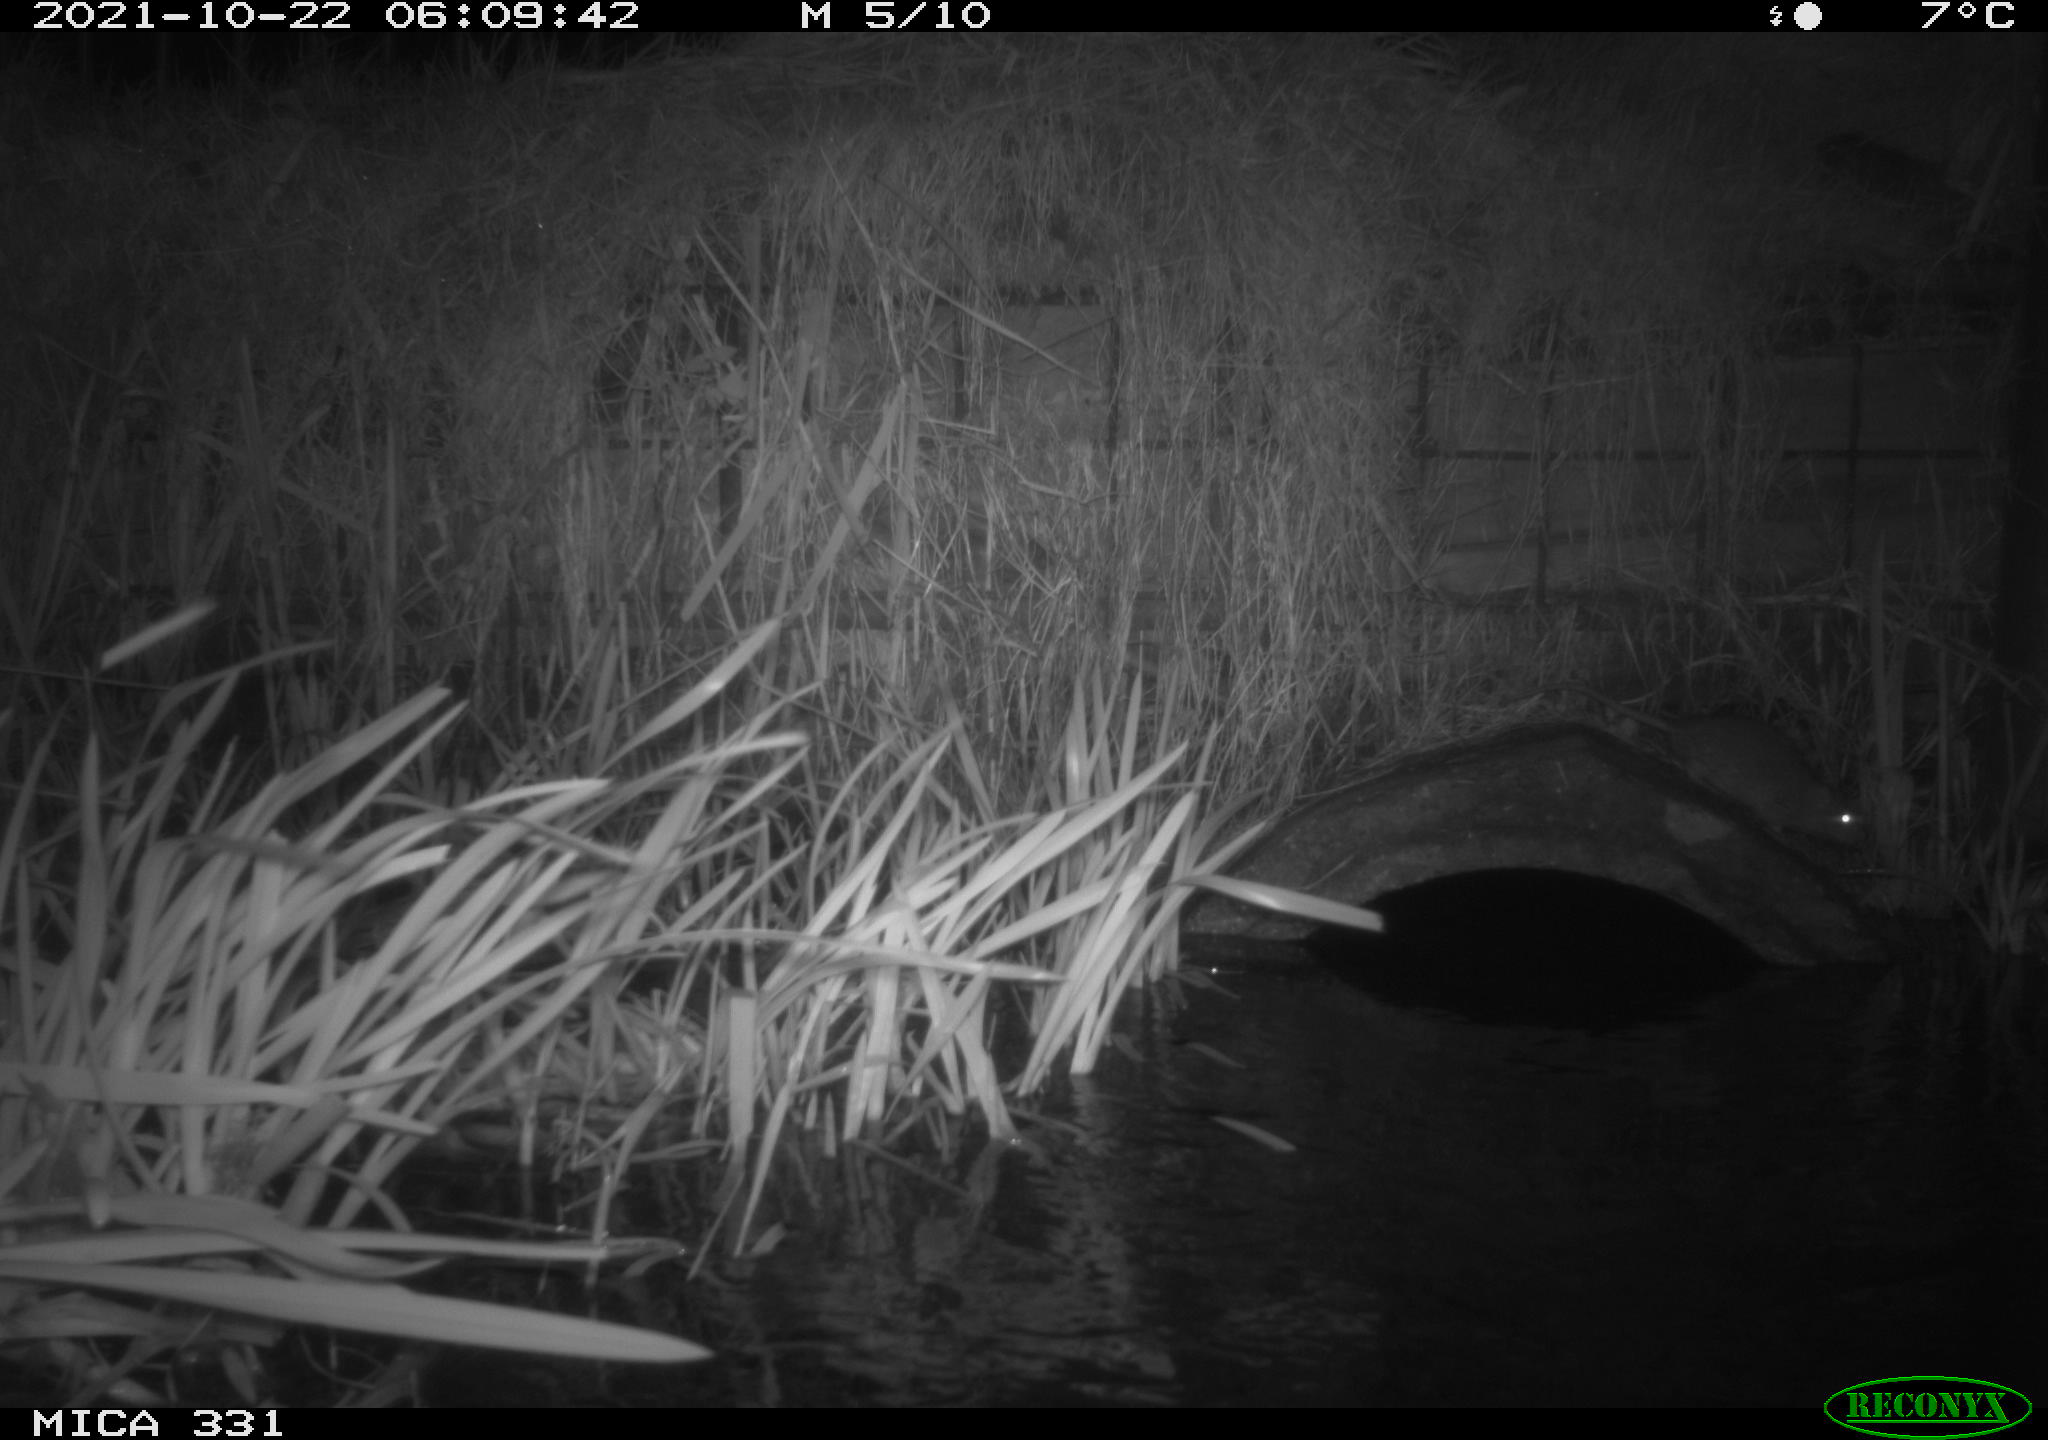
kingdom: Animalia
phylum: Chordata
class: Mammalia
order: Rodentia
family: Muridae
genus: Rattus
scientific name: Rattus norvegicus
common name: Brown rat
